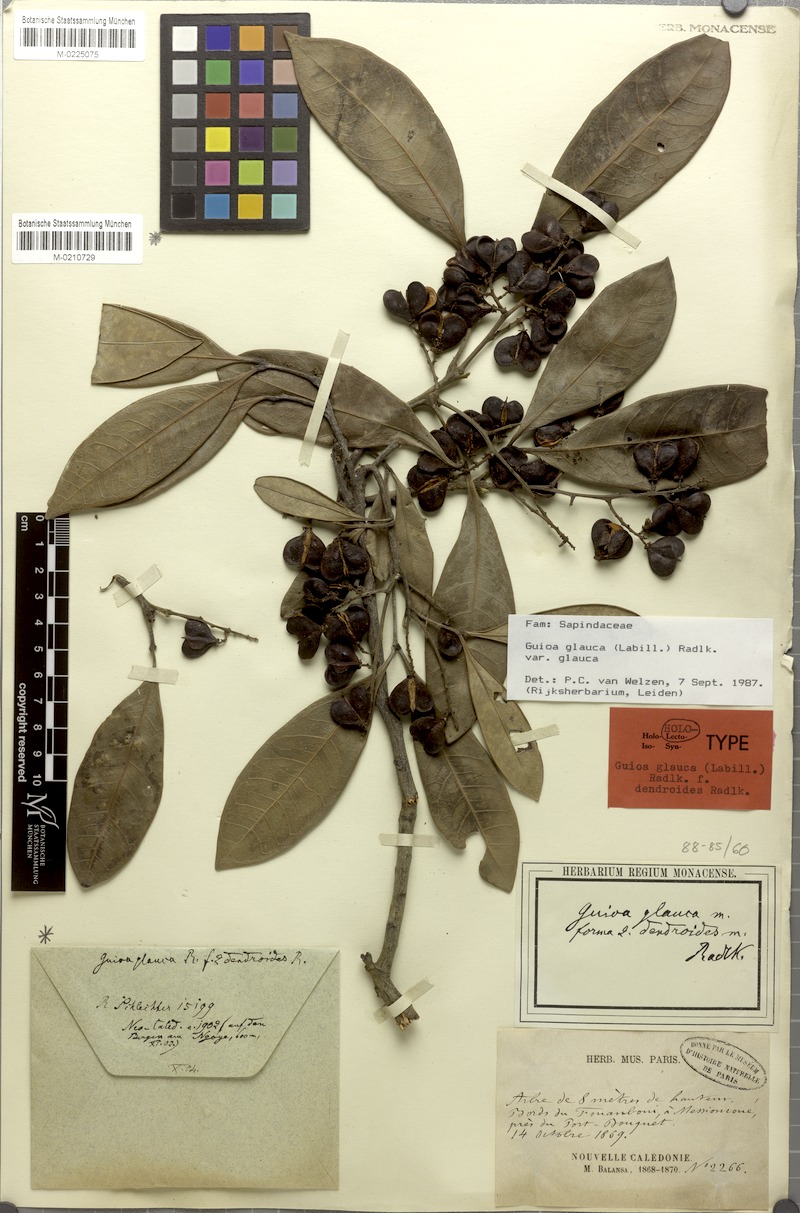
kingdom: Plantae
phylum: Tracheophyta
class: Magnoliopsida
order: Sapindales
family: Sapindaceae
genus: Guioa
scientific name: Guioa glauca
